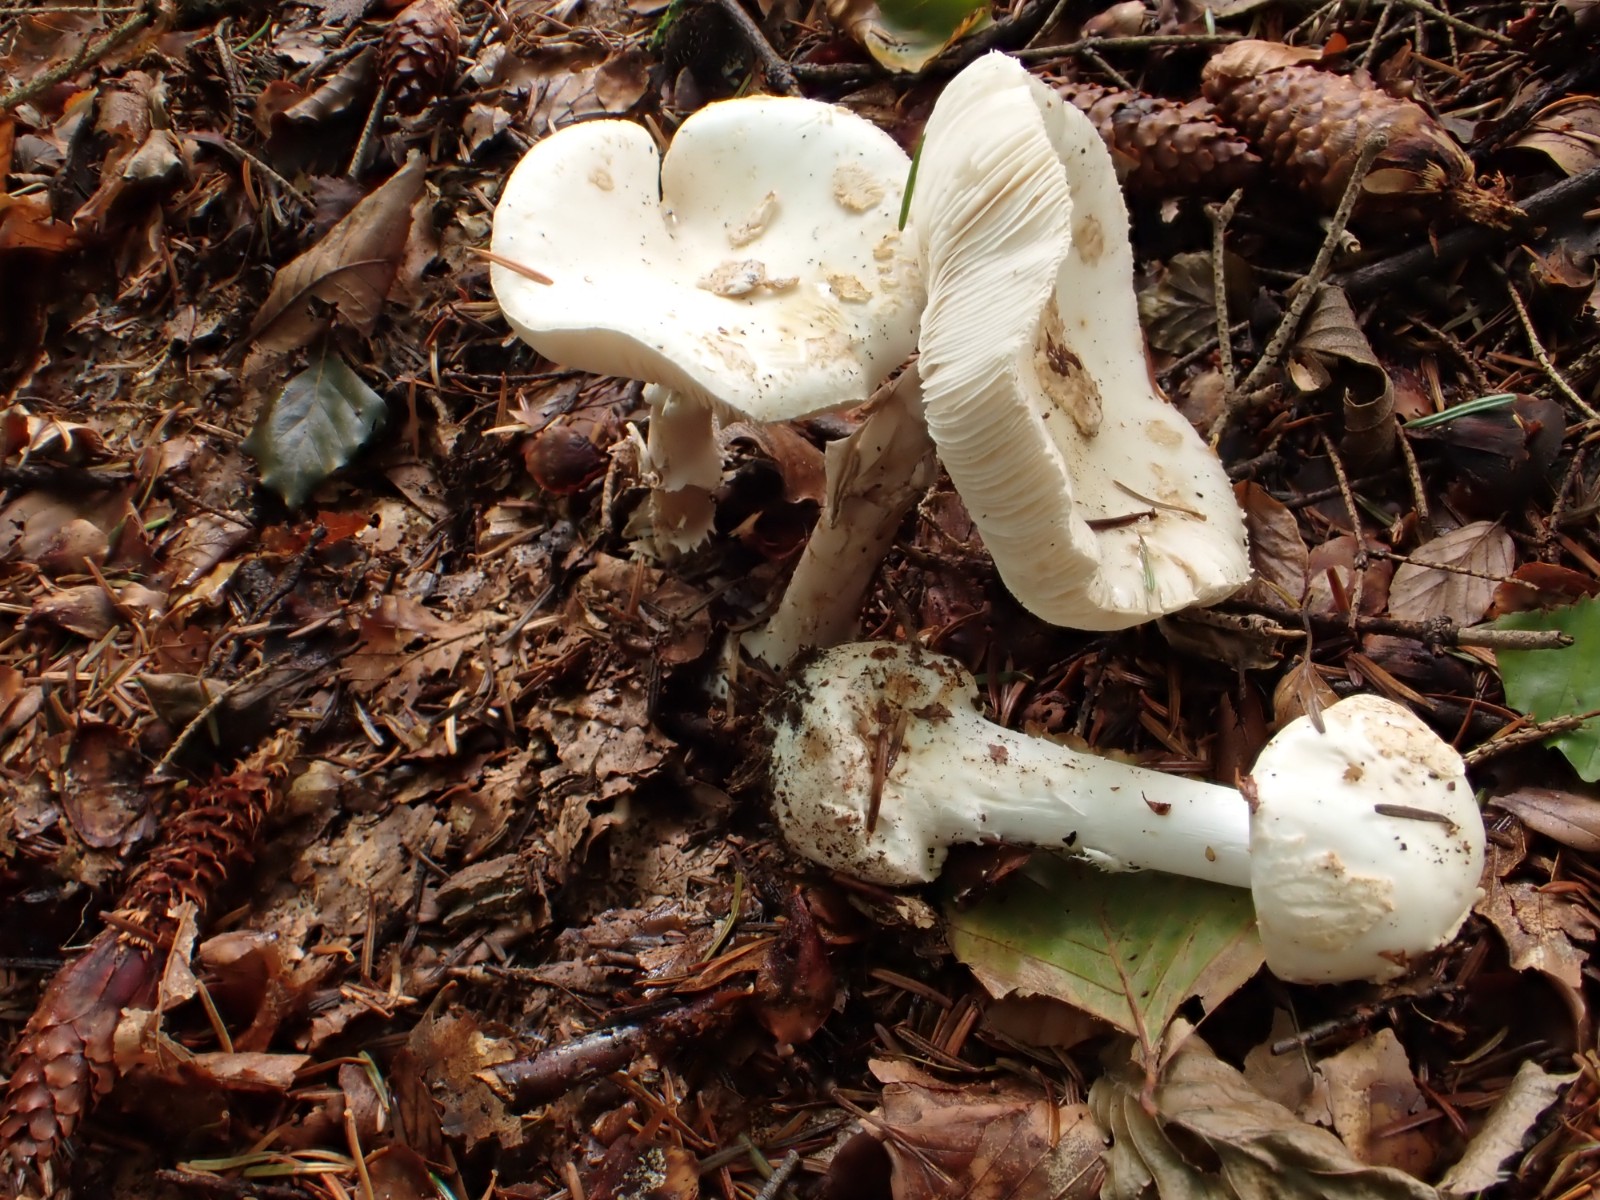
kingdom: Fungi
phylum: Basidiomycota
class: Agaricomycetes
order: Agaricales
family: Amanitaceae
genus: Amanita
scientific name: Amanita citrina
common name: False death-cap
